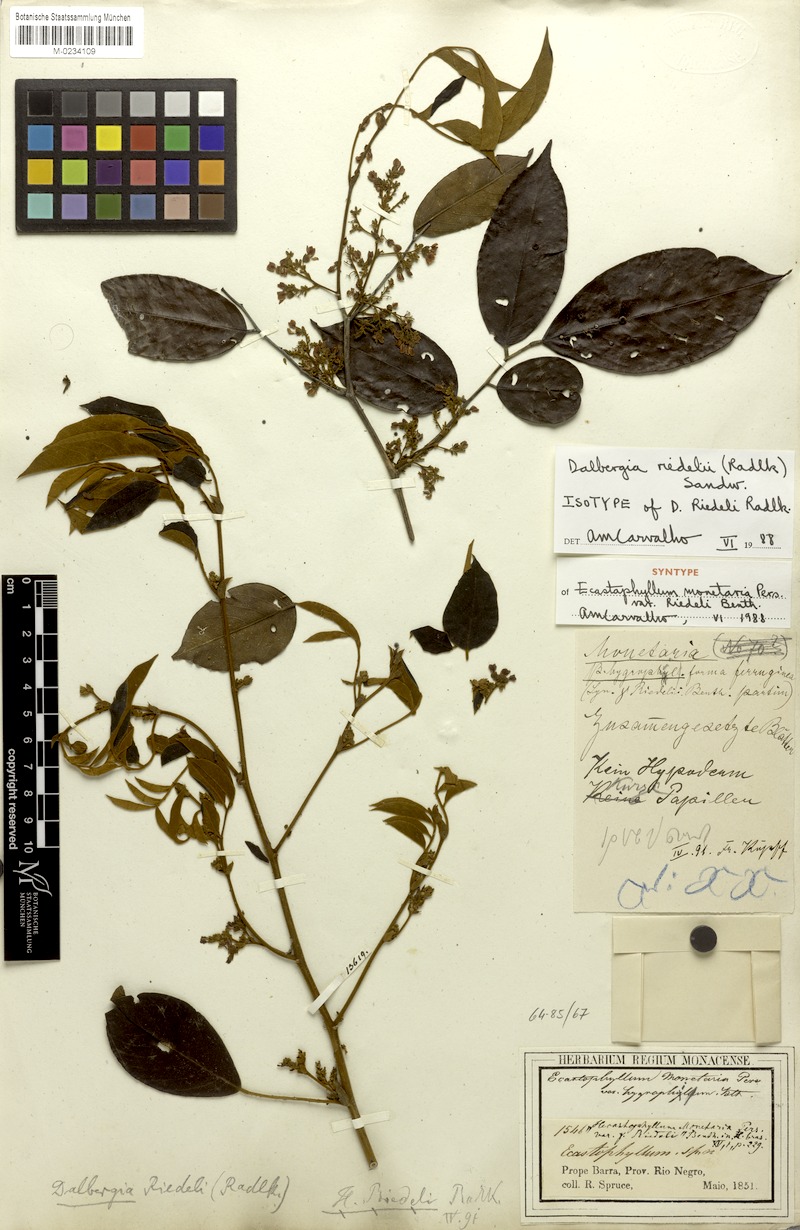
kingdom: Plantae
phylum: Tracheophyta
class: Magnoliopsida
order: Fabales
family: Fabaceae
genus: Dalbergia
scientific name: Dalbergia riedelii
